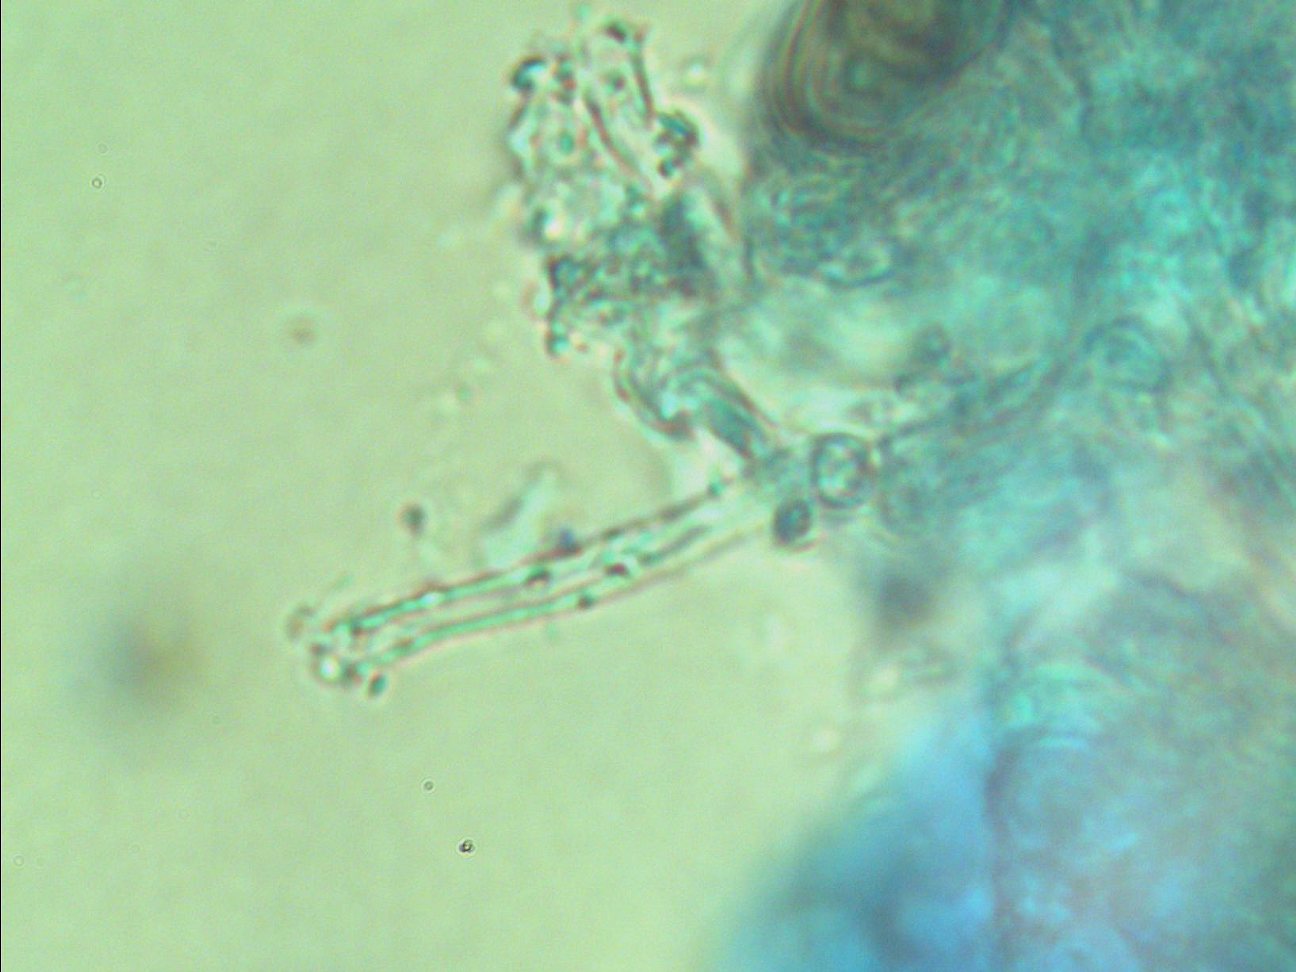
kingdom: Fungi
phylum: Basidiomycota
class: Agaricomycetes
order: Corticiales
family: Corticiaceae
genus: Lyomyces
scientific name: Lyomyces sambuci
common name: almindelig hyldehinde
